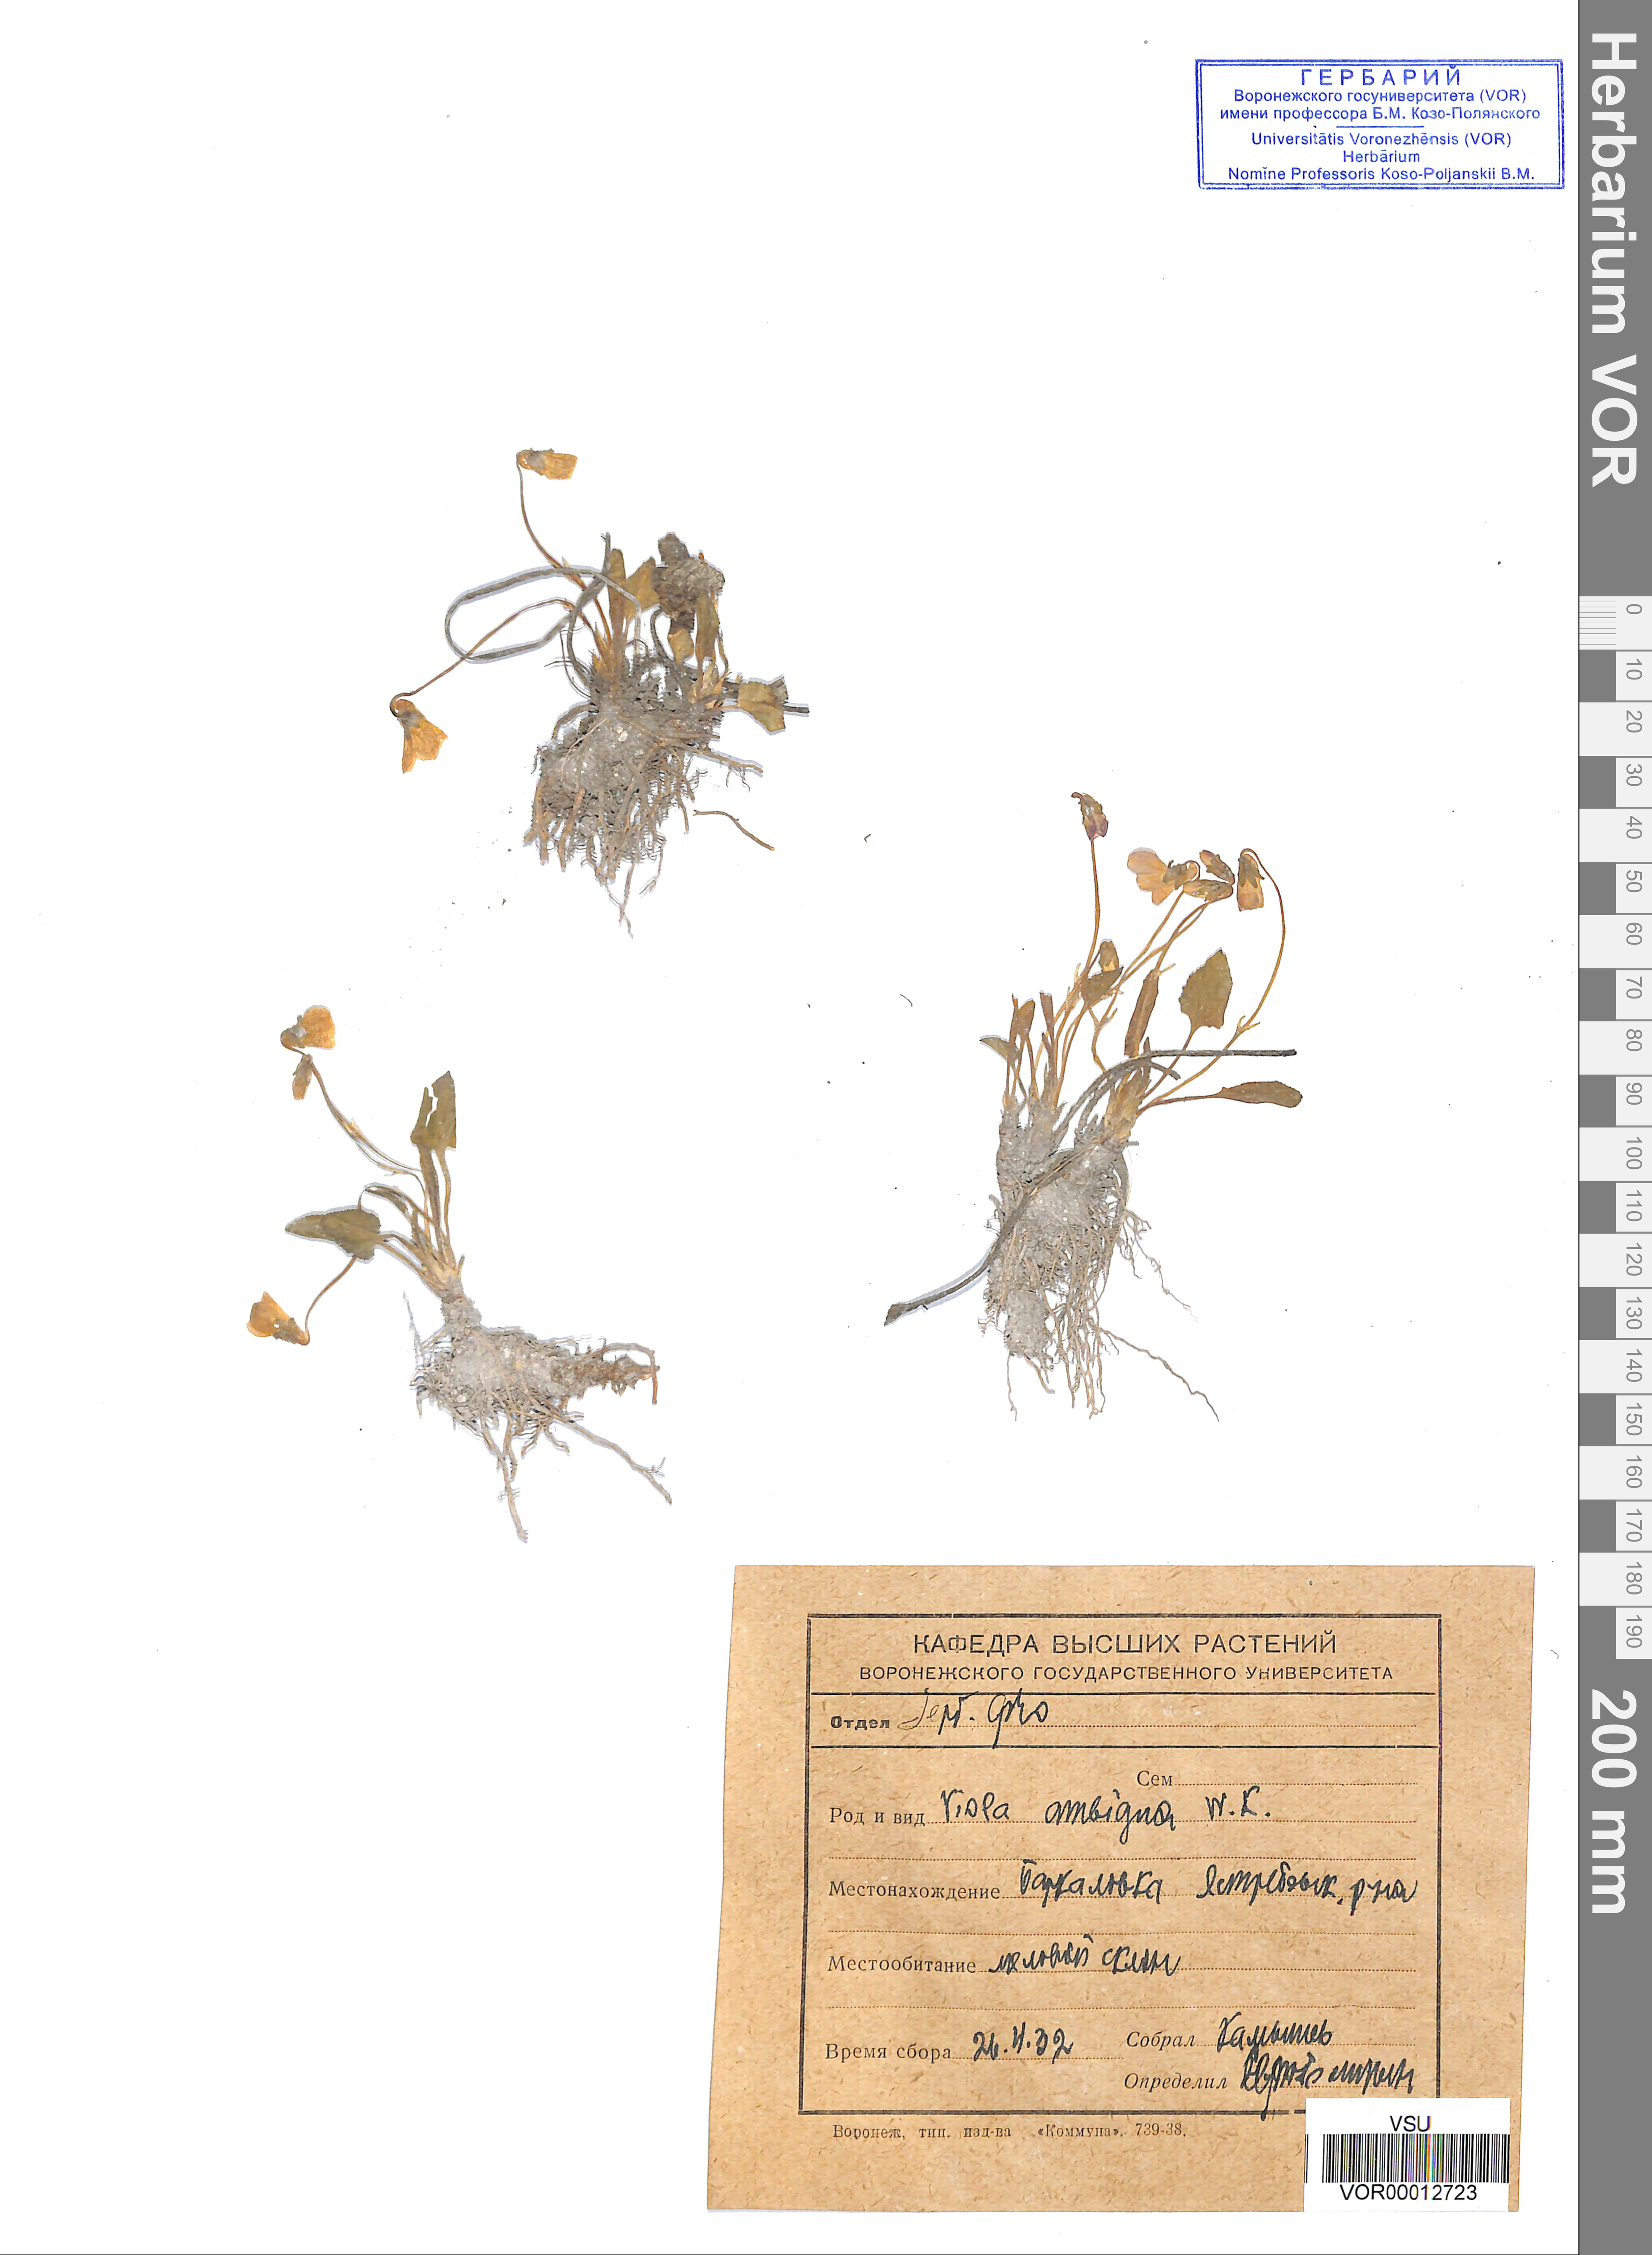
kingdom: Plantae
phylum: Tracheophyta
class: Magnoliopsida
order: Malpighiales
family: Violaceae
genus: Viola
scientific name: Viola ambigua
